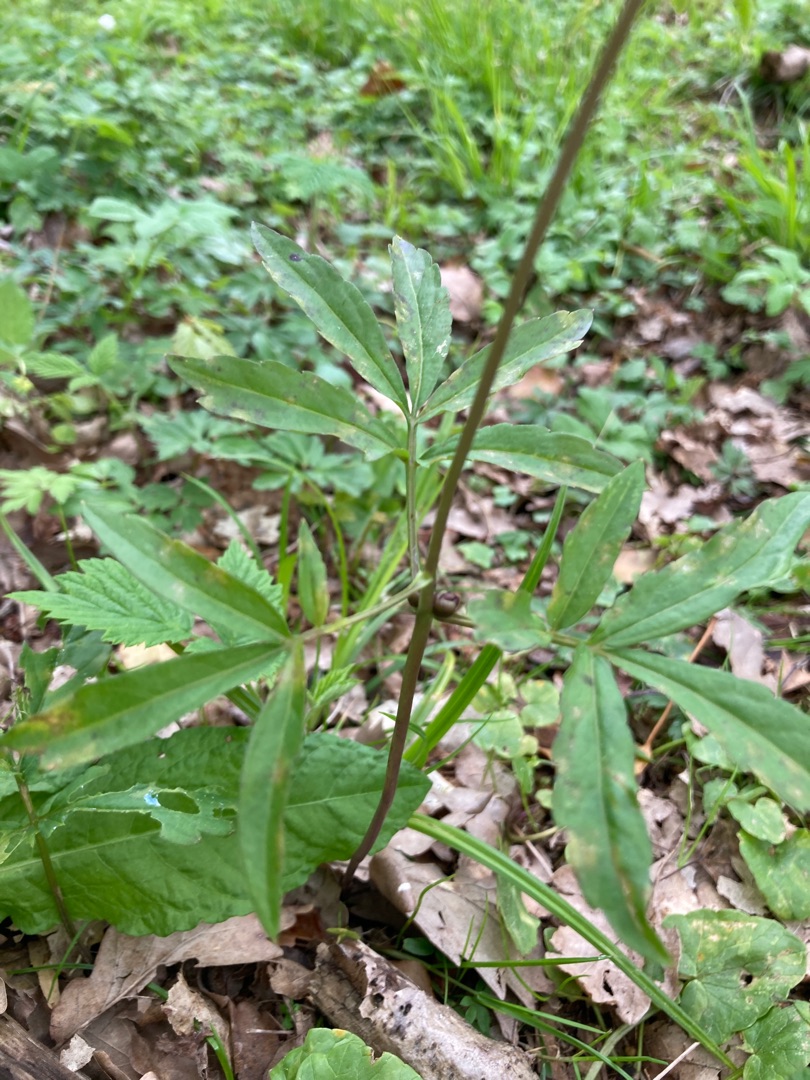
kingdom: Plantae
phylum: Tracheophyta
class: Magnoliopsida
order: Brassicales
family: Brassicaceae
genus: Cardamine
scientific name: Cardamine bulbifera
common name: Tandrod
